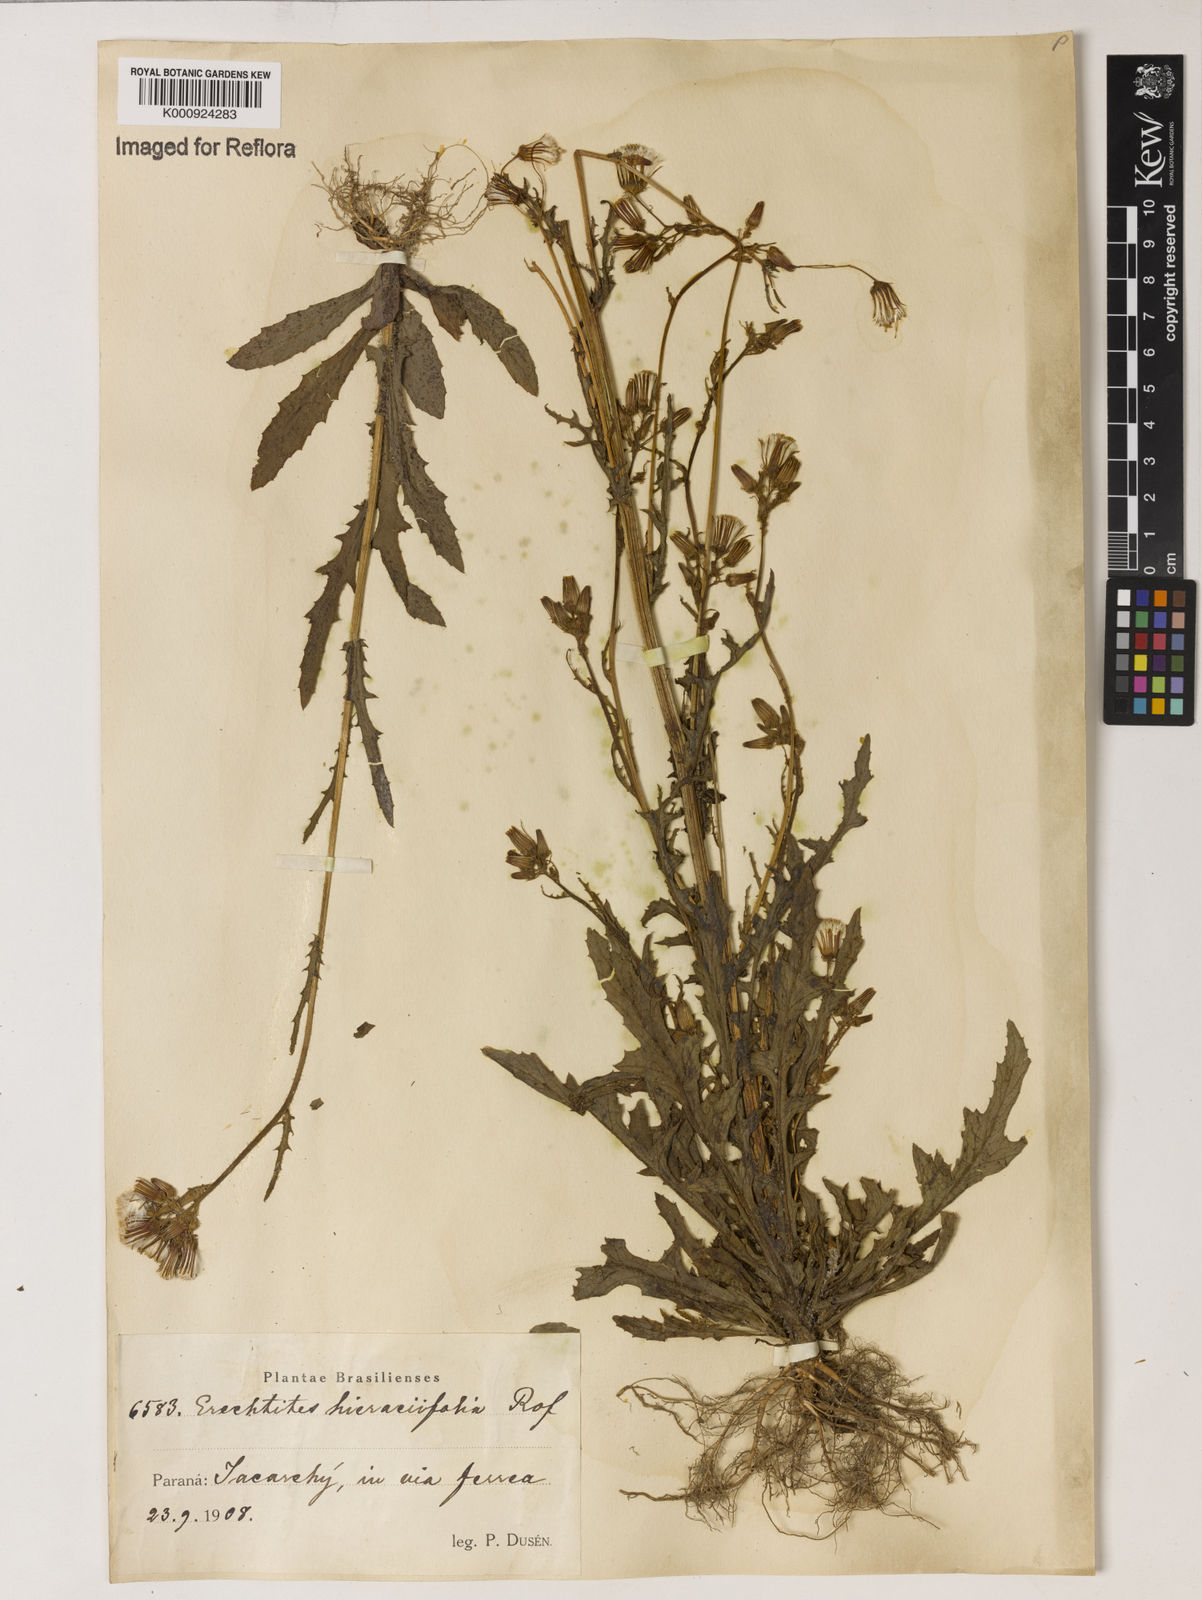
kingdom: Plantae
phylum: Tracheophyta
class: Magnoliopsida
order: Asterales
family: Asteraceae
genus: Erechtites
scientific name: Erechtites hieraciifolius
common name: American burnweed
